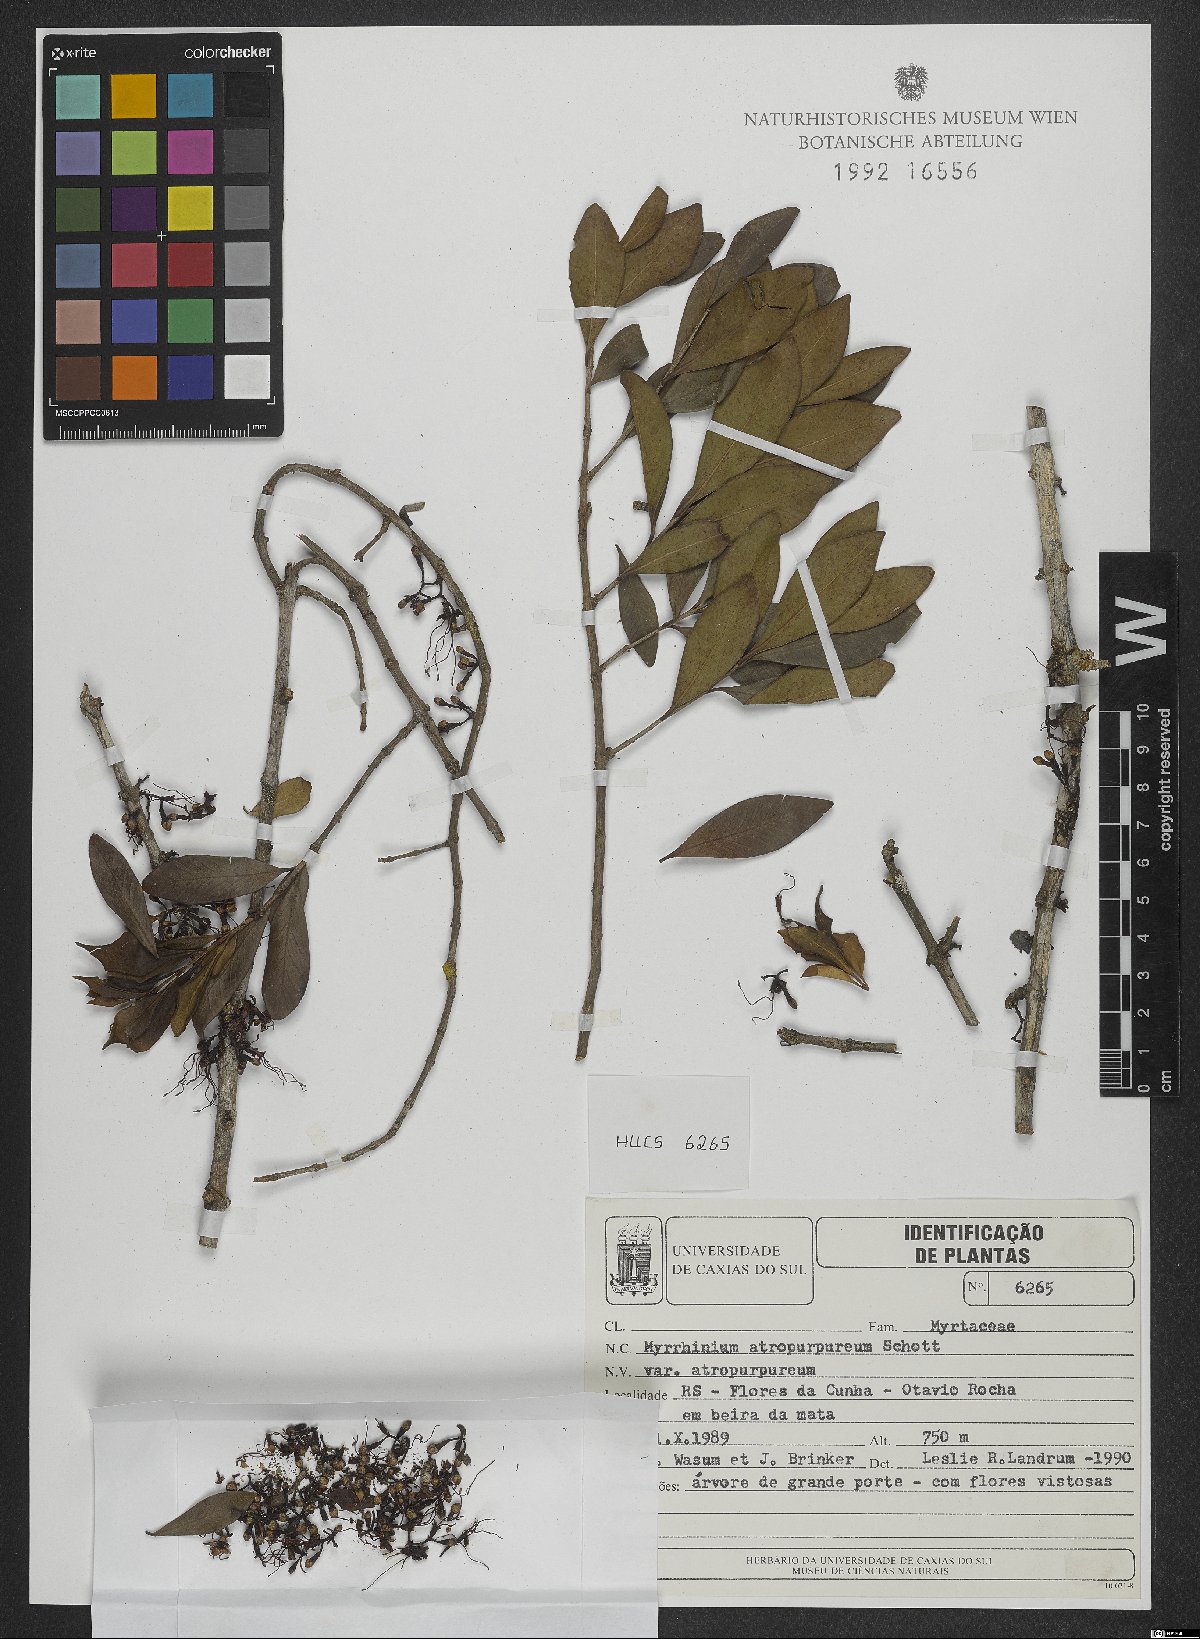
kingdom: Plantae
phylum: Tracheophyta
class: Magnoliopsida
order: Myrtales
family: Myrtaceae
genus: Myrrhinium
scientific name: Myrrhinium atropurpureum
